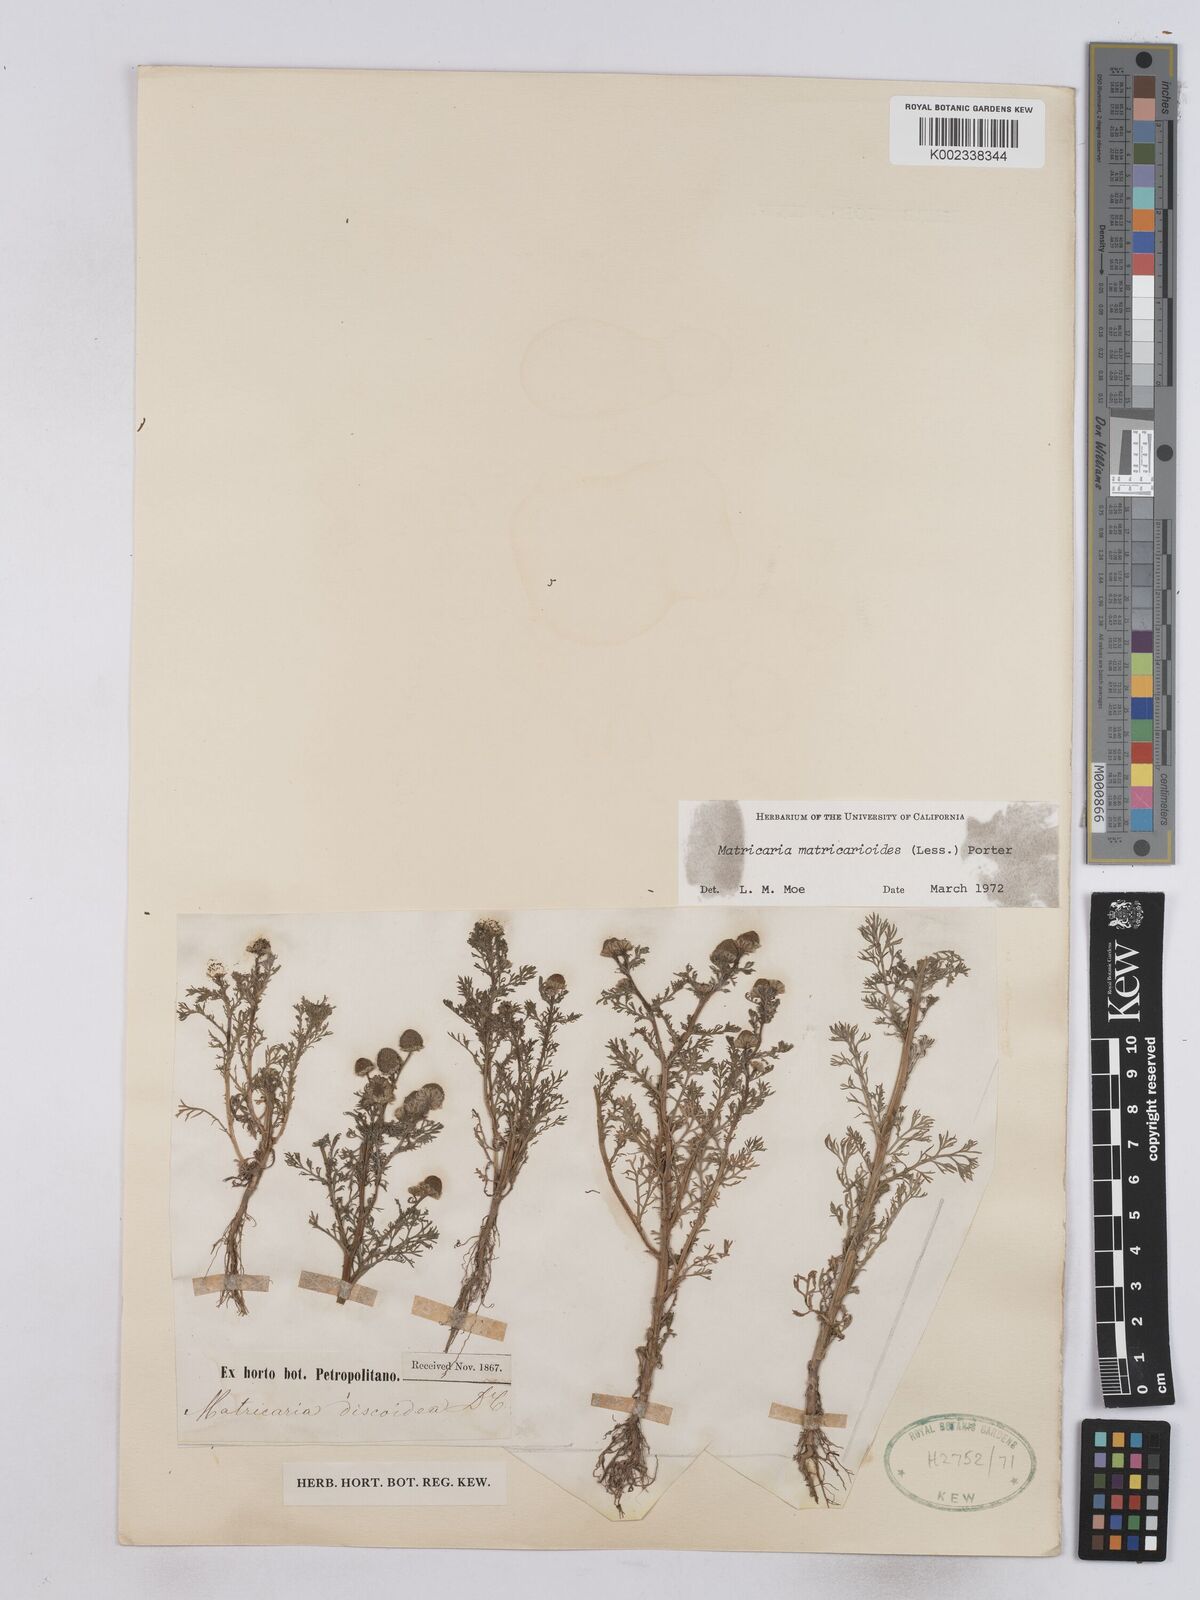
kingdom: Plantae
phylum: Tracheophyta
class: Magnoliopsida
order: Asterales
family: Asteraceae
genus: Matricaria
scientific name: Matricaria discoidea
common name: Disc mayweed
